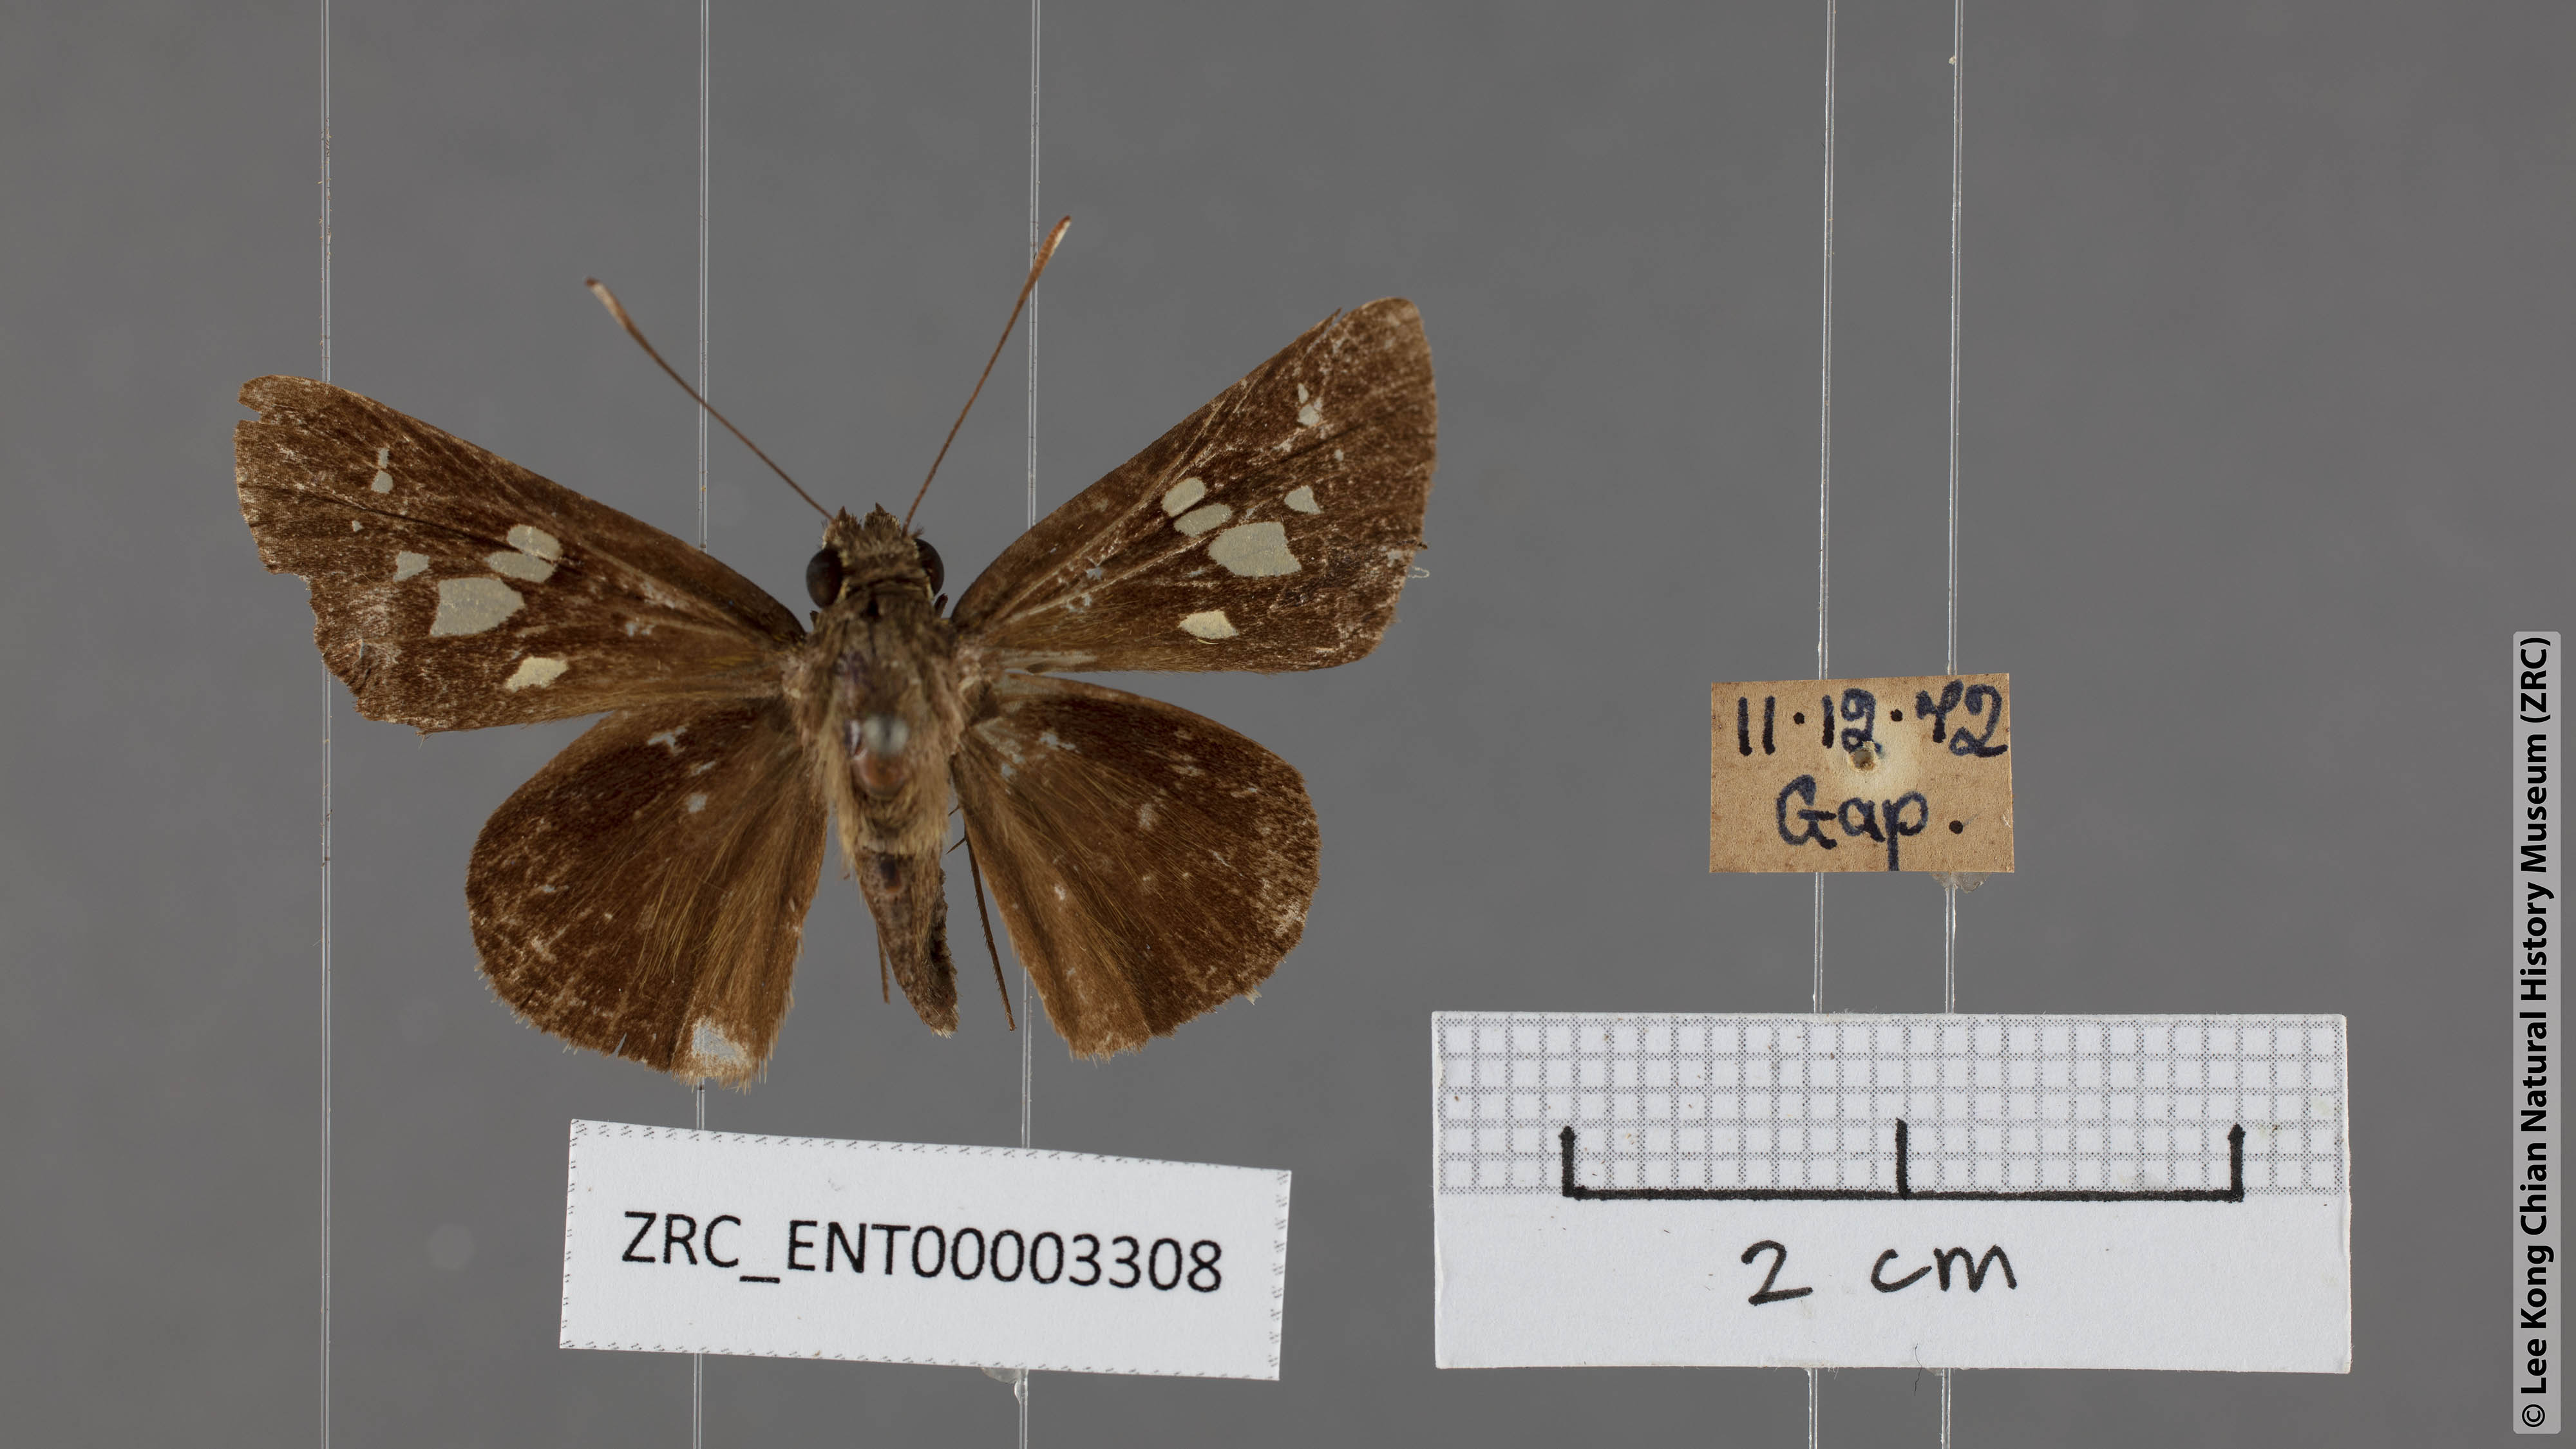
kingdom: Animalia
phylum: Arthropoda
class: Insecta
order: Lepidoptera
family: Hesperiidae
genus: Isma
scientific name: Isma guttulifera
